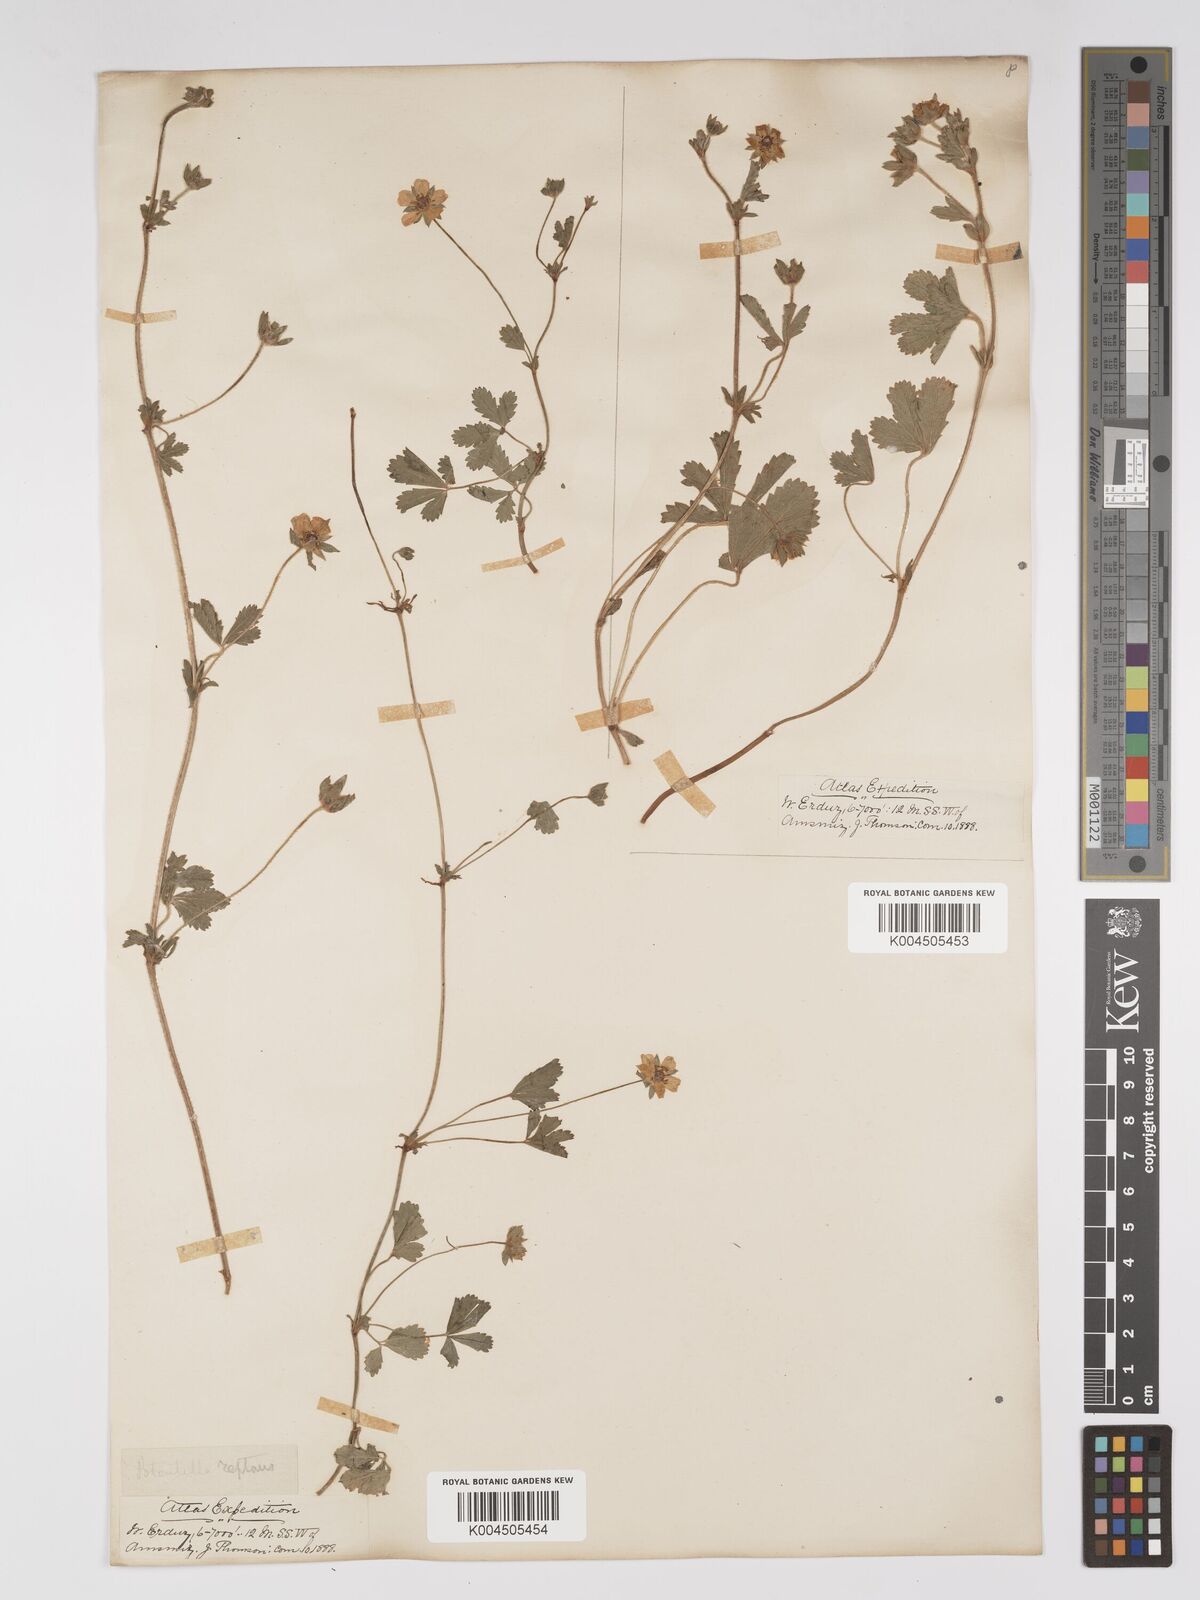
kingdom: Plantae
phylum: Tracheophyta
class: Magnoliopsida
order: Rosales
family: Rosaceae
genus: Potentilla
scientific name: Potentilla reptans
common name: Creeping cinquefoil
